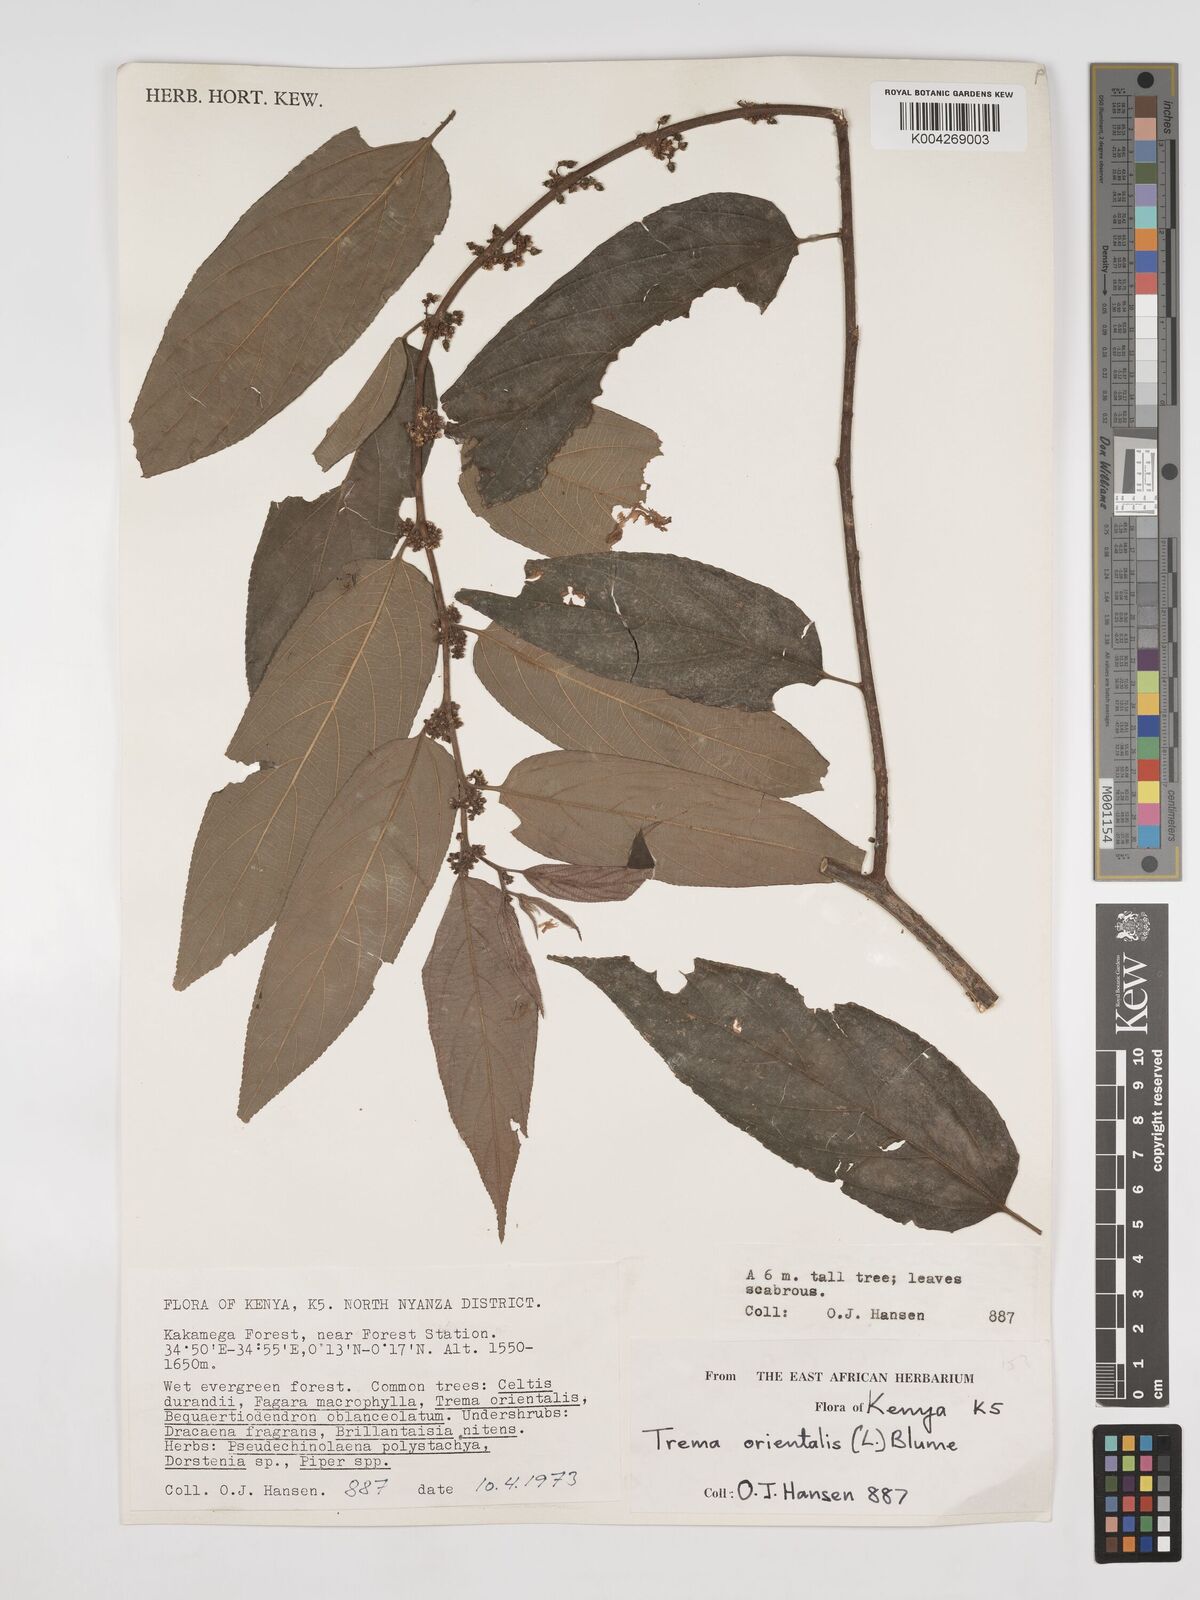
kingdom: Plantae
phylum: Tracheophyta
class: Magnoliopsida
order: Rosales
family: Cannabaceae
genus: Trema
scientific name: Trema orientale
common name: Indian charcoal tree
